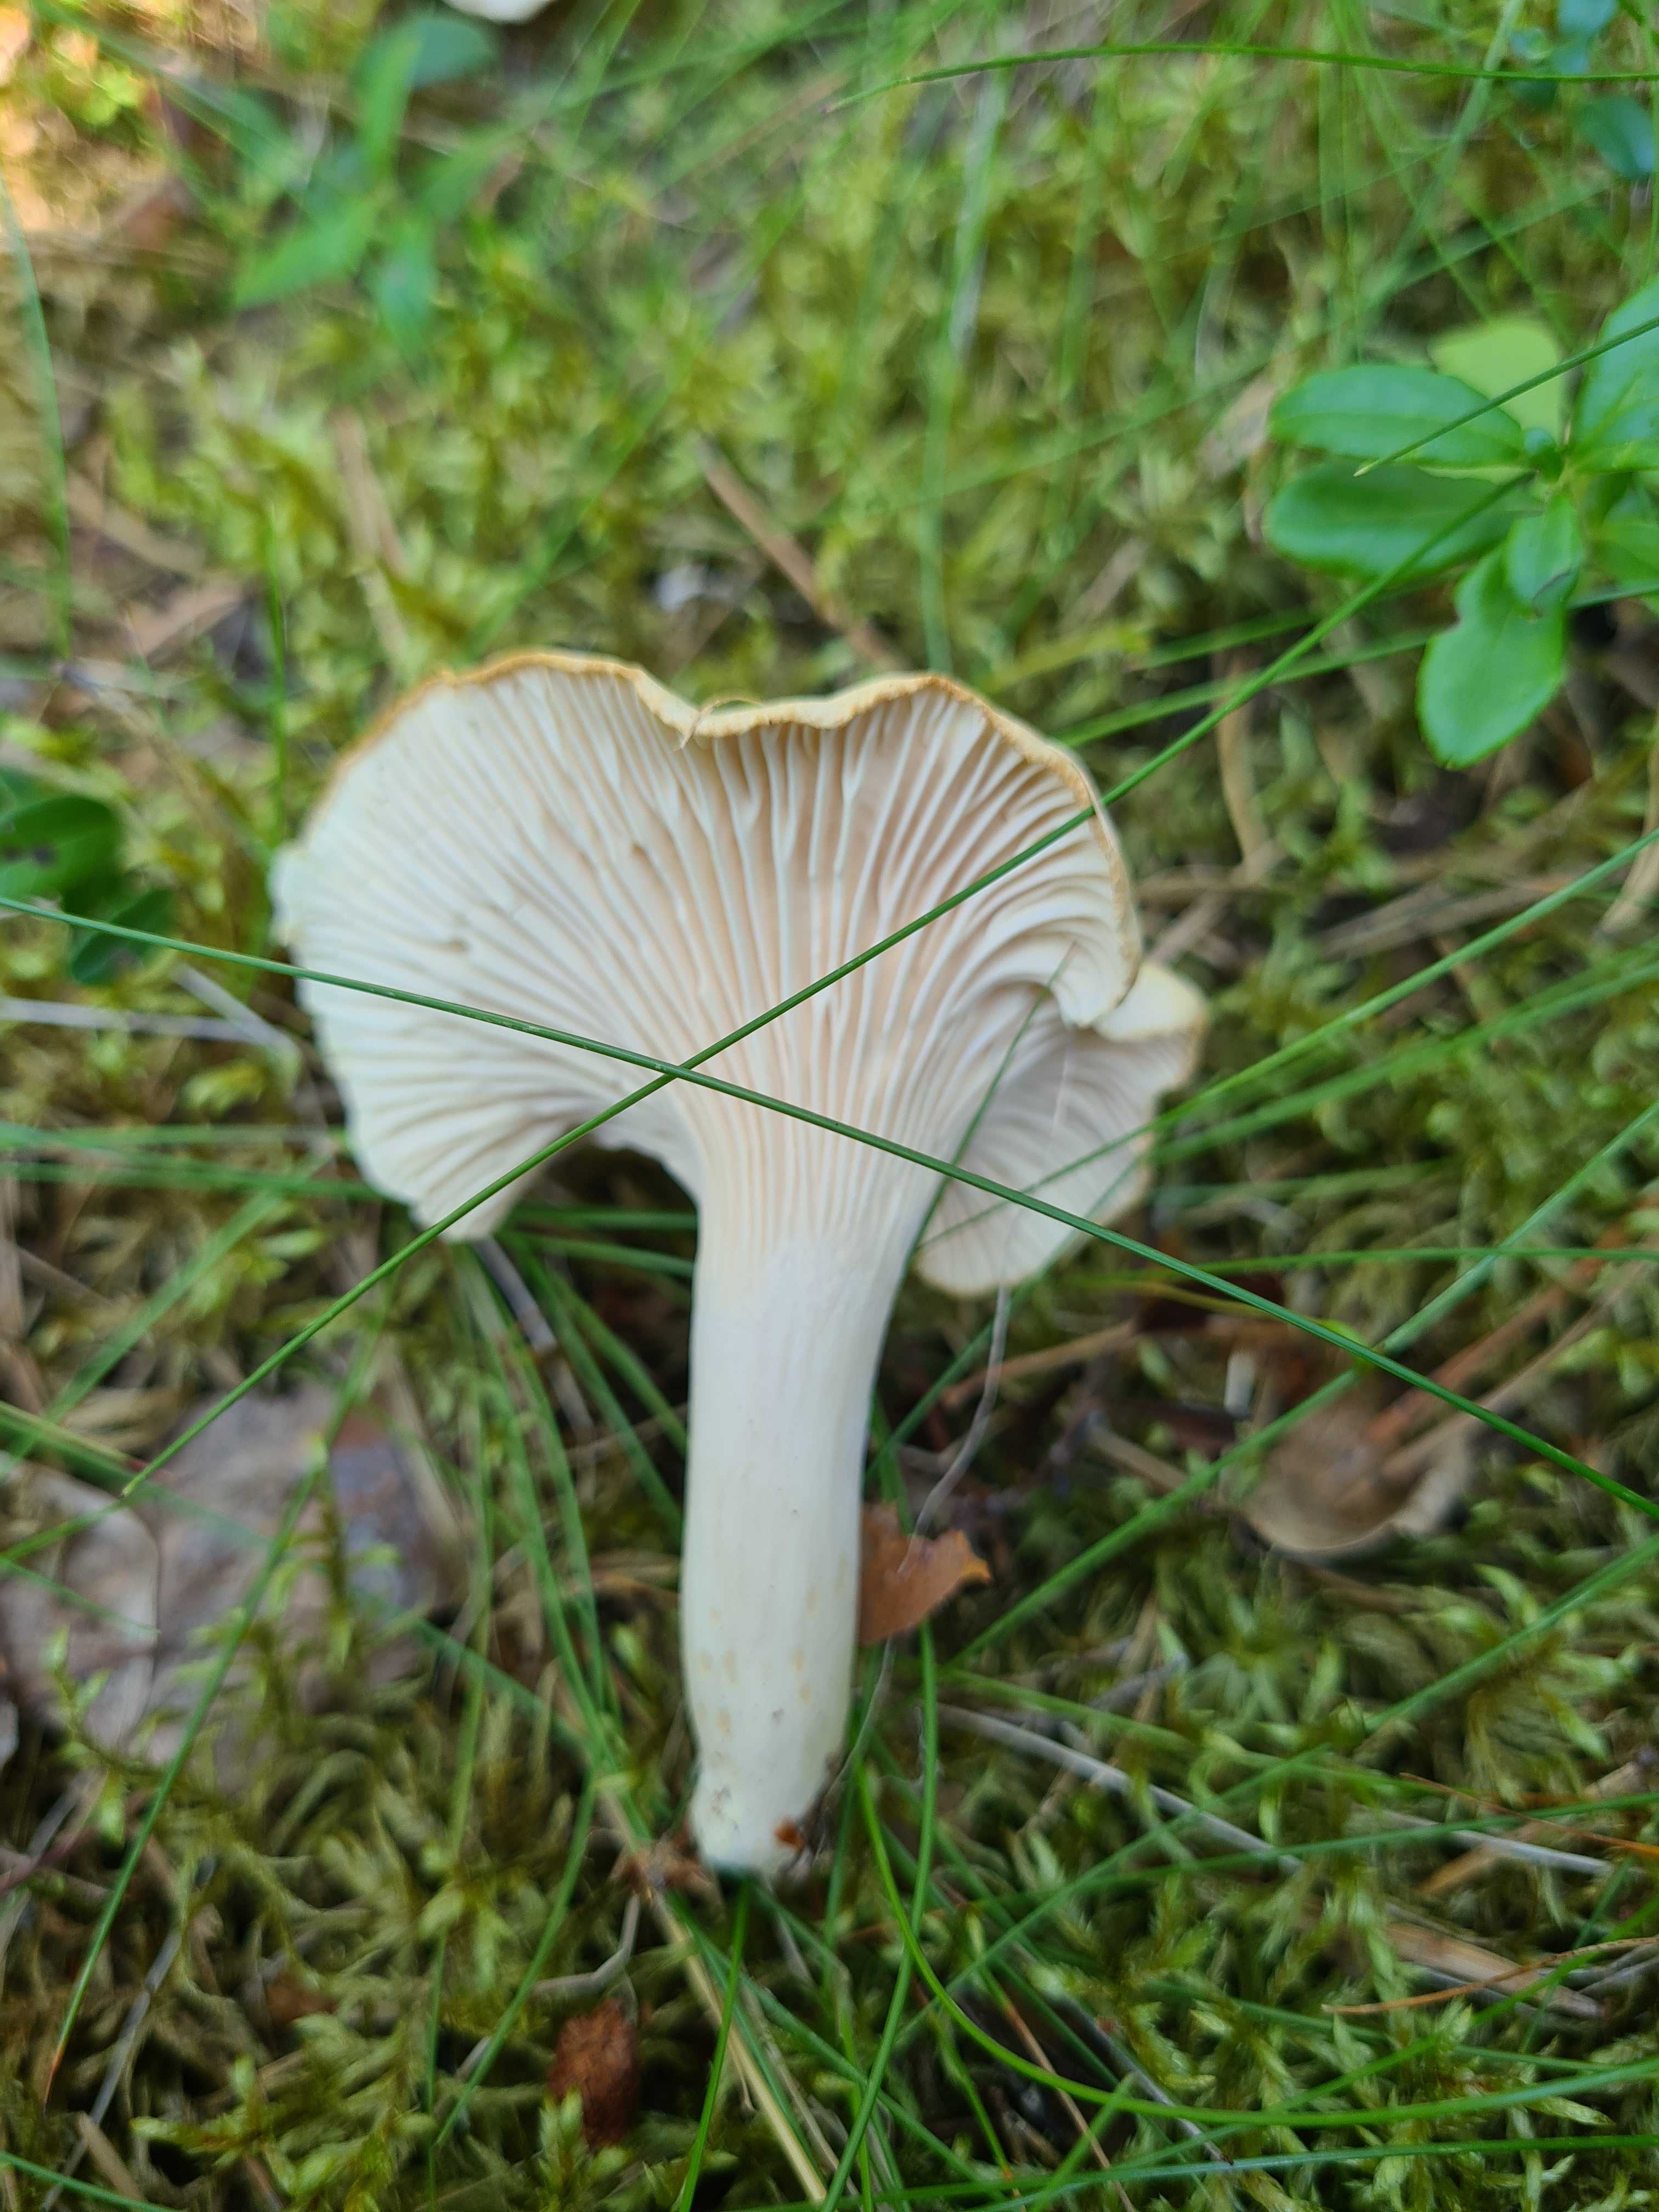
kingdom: Fungi
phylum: Basidiomycota
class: Agaricomycetes
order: Cantharellales
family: Hydnaceae
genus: Cantharellus
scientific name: Cantharellus cibarius
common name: almindelig kantarel
